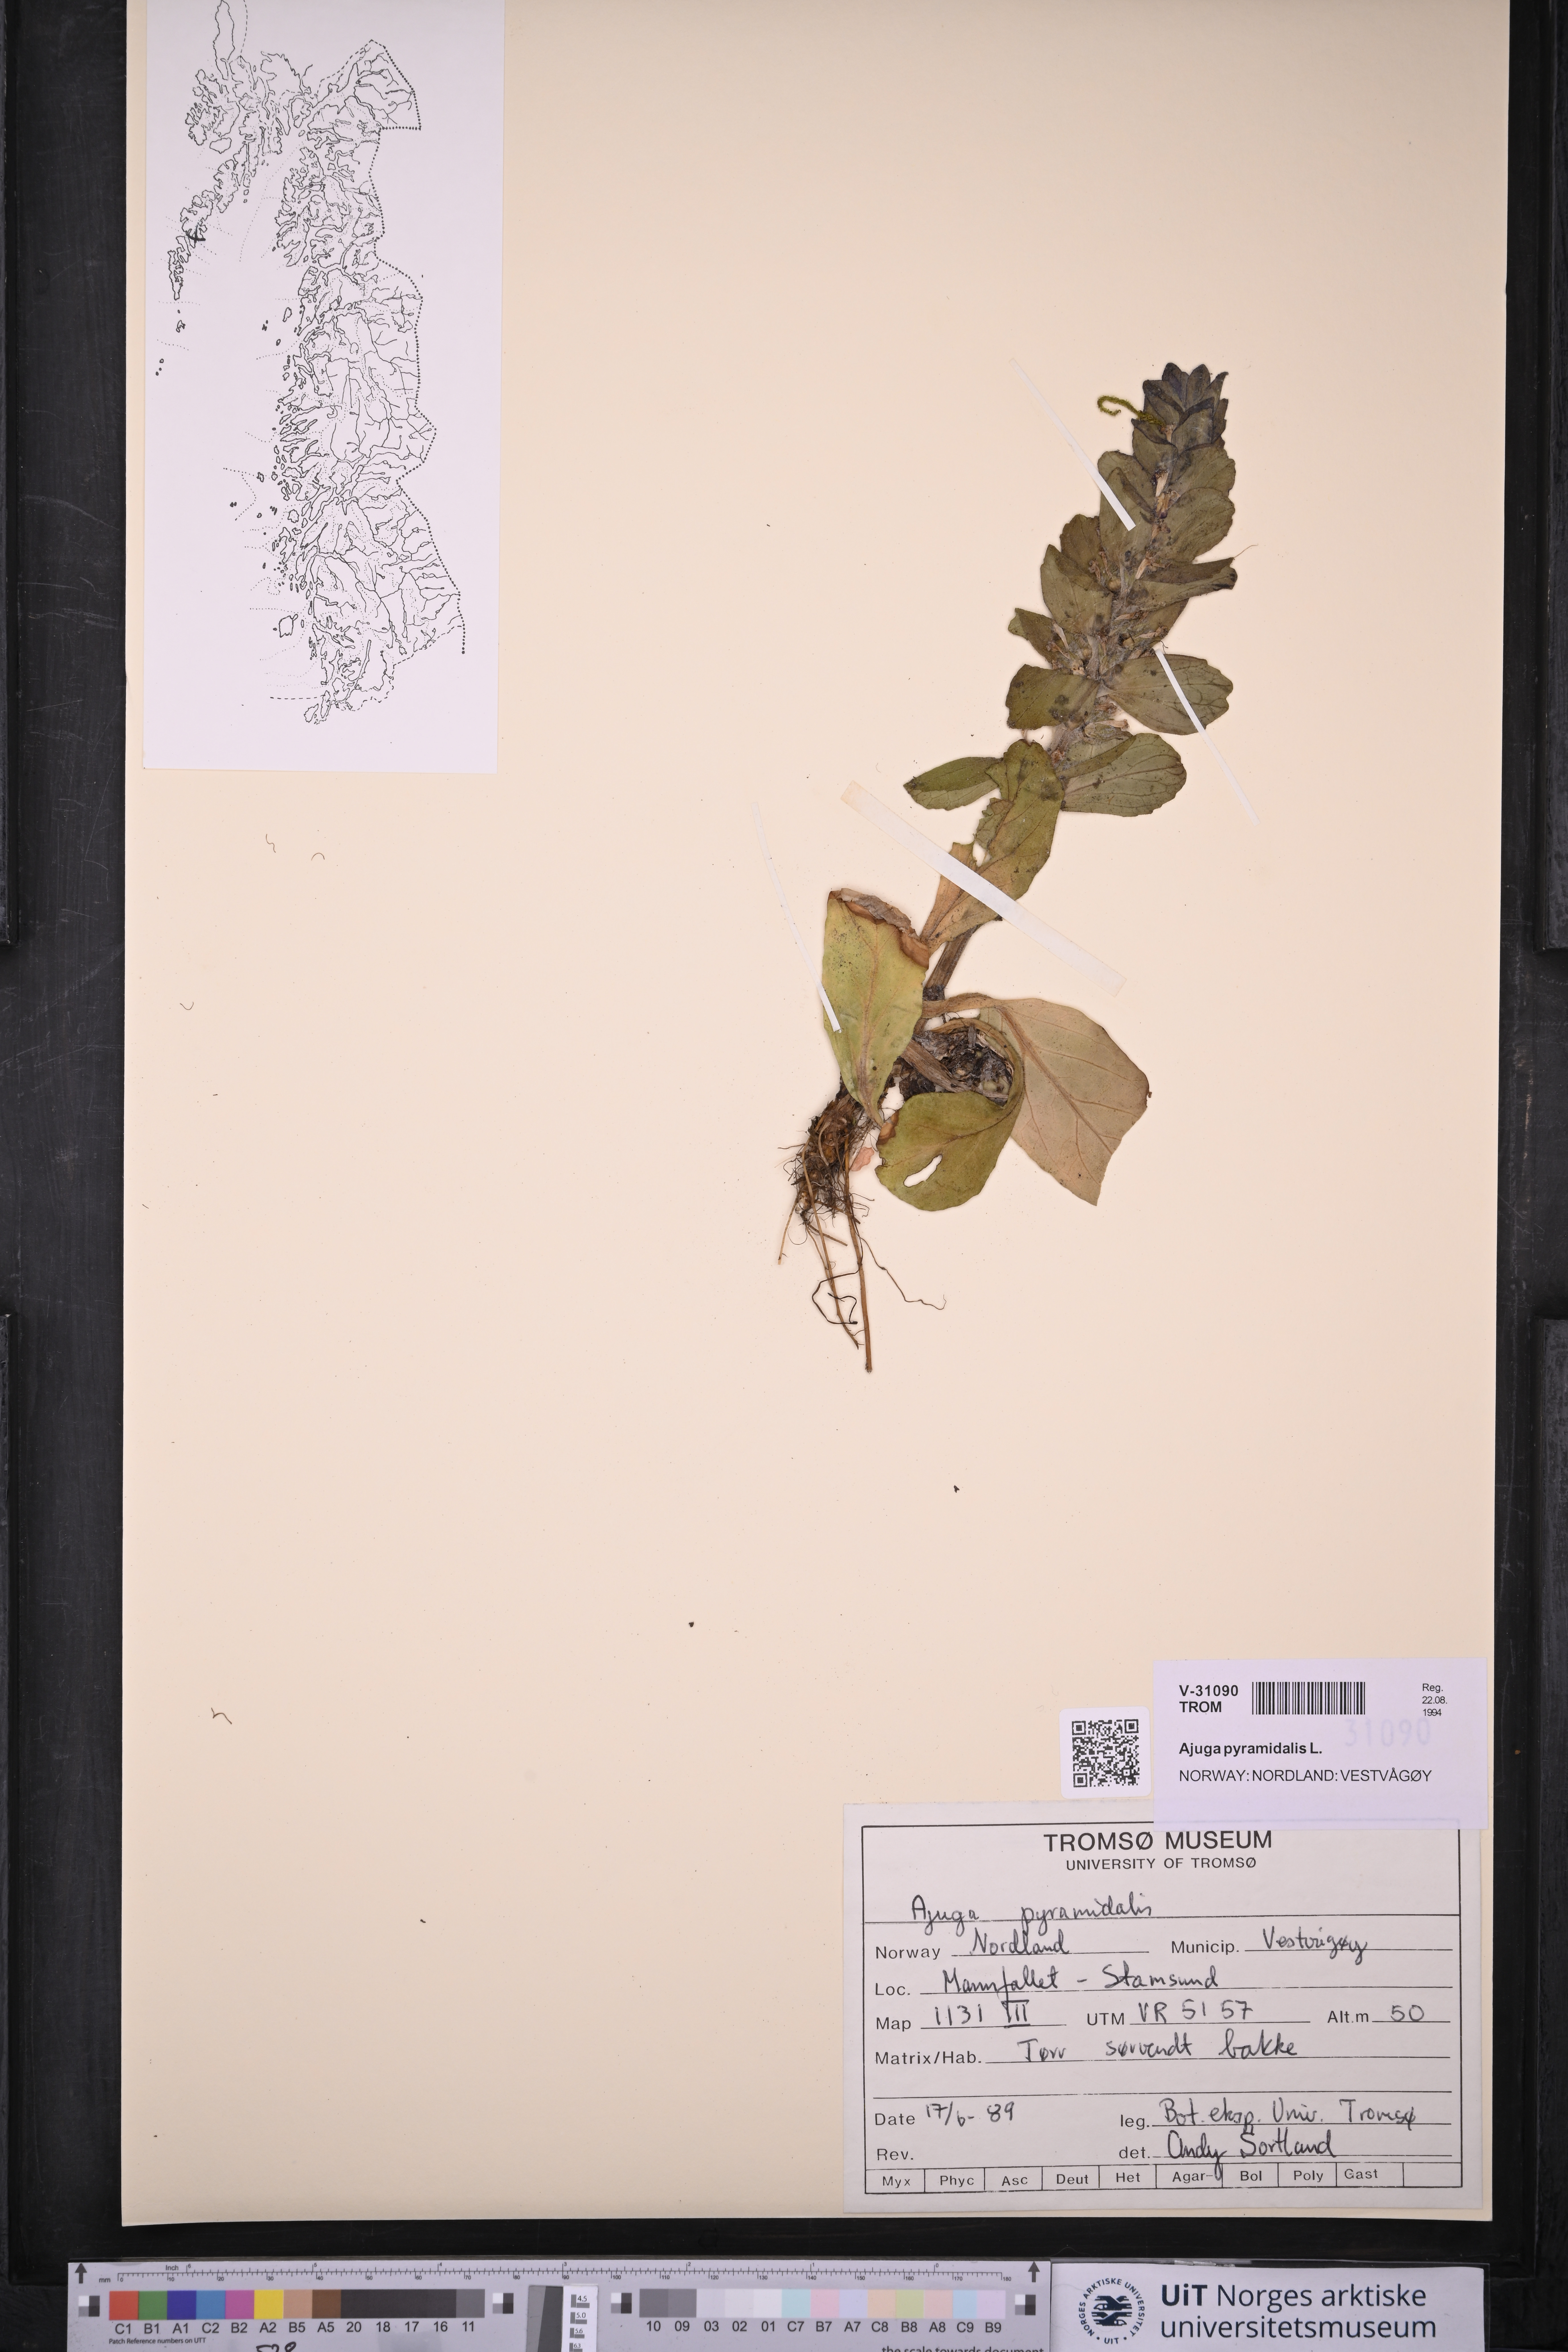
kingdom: Plantae
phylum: Tracheophyta
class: Magnoliopsida
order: Lamiales
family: Lamiaceae
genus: Ajuga
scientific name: Ajuga pyramidalis
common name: Pyramid bugle
